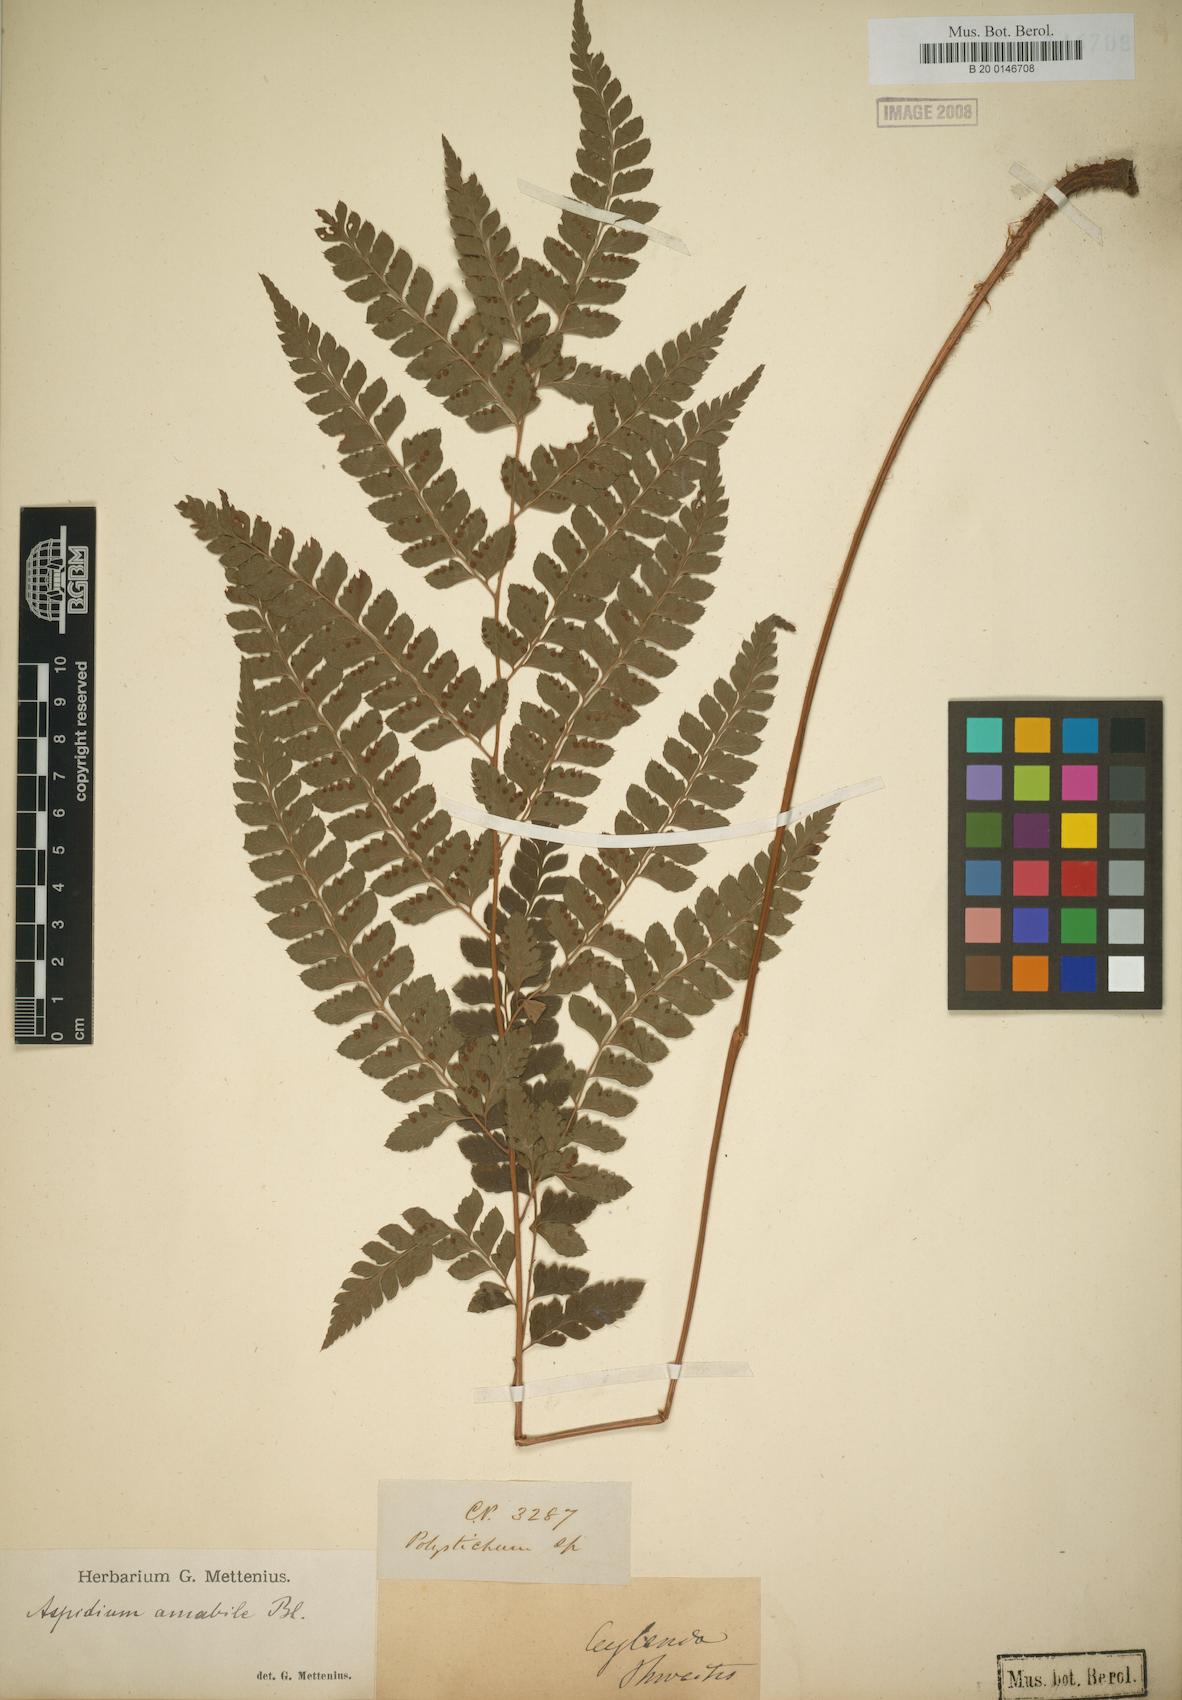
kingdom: Plantae
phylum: Tracheophyta
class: Polypodiopsida
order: Polypodiales
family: Dryopteridaceae
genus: Arachniodes
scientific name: Arachniodes amabilis
